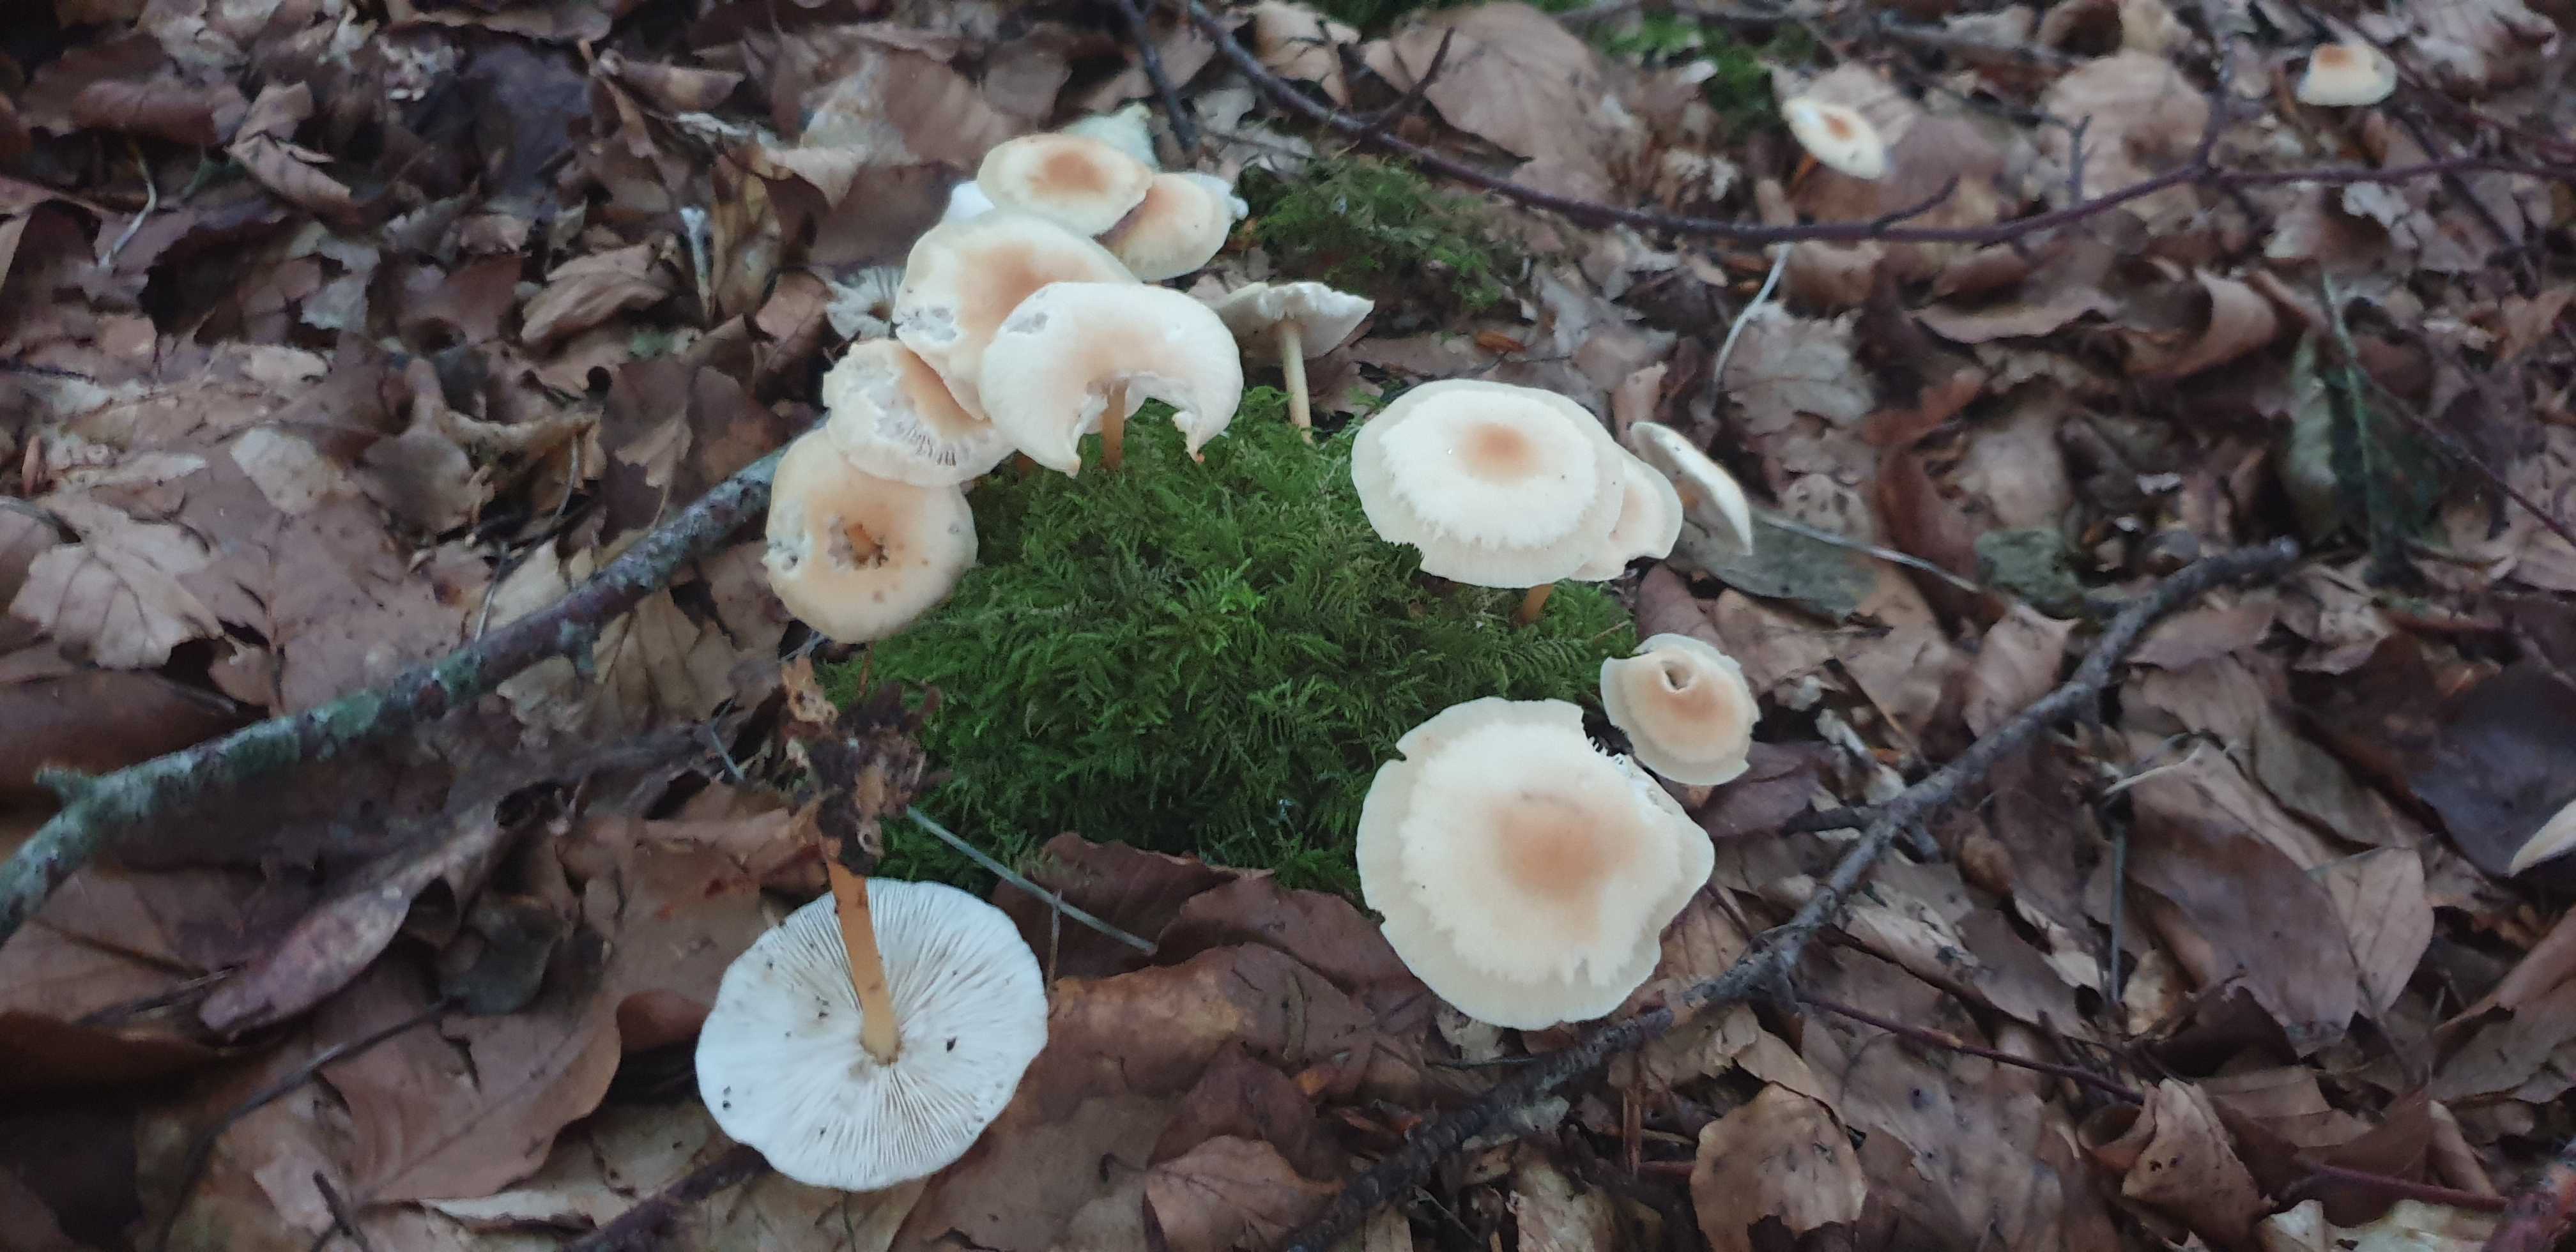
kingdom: Fungi
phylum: Basidiomycota
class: Agaricomycetes
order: Agaricales
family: Omphalotaceae
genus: Gymnopus
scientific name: Gymnopus dryophilus
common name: løv-fladhat
